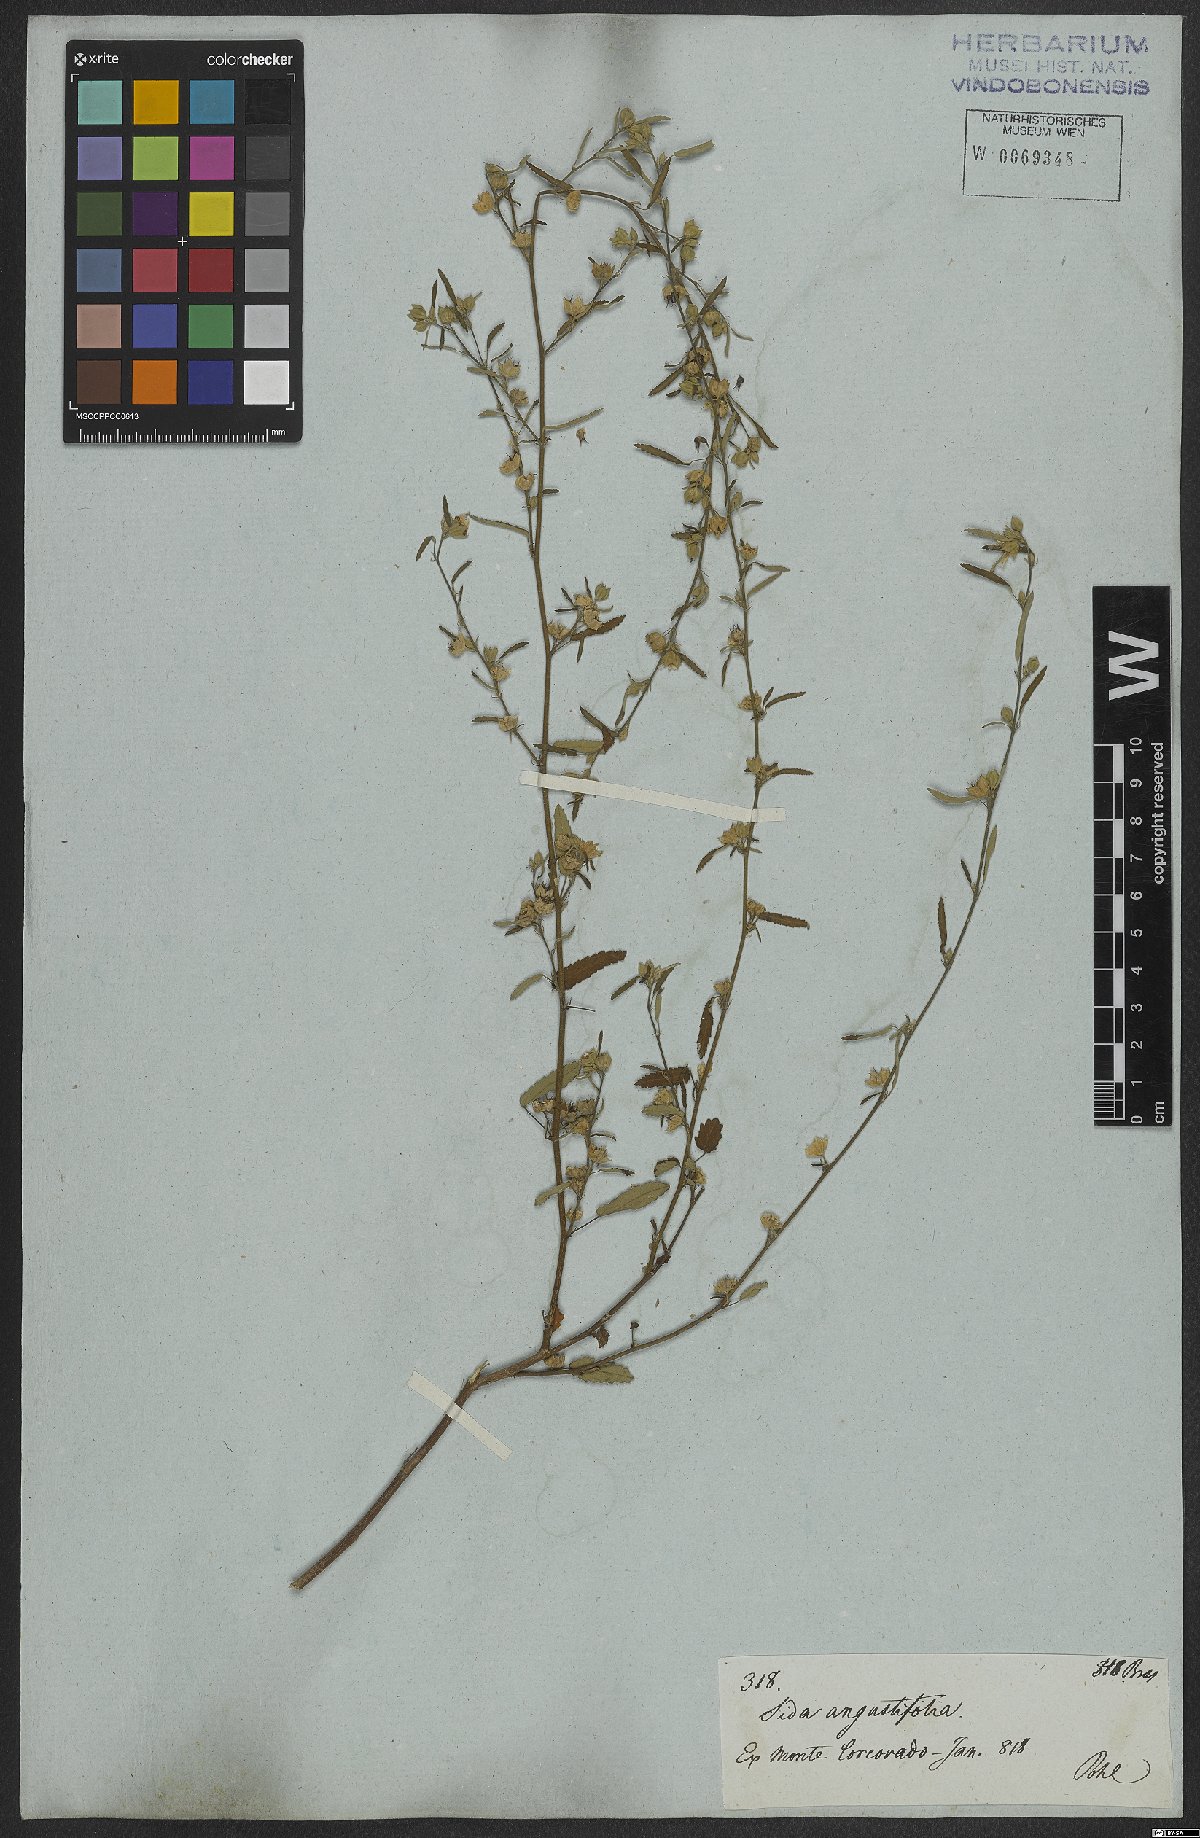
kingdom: Plantae
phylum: Tracheophyta
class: Magnoliopsida
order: Malvales
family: Malvaceae
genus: Sida
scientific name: Sida spinosa
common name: Prickly fanpetals
